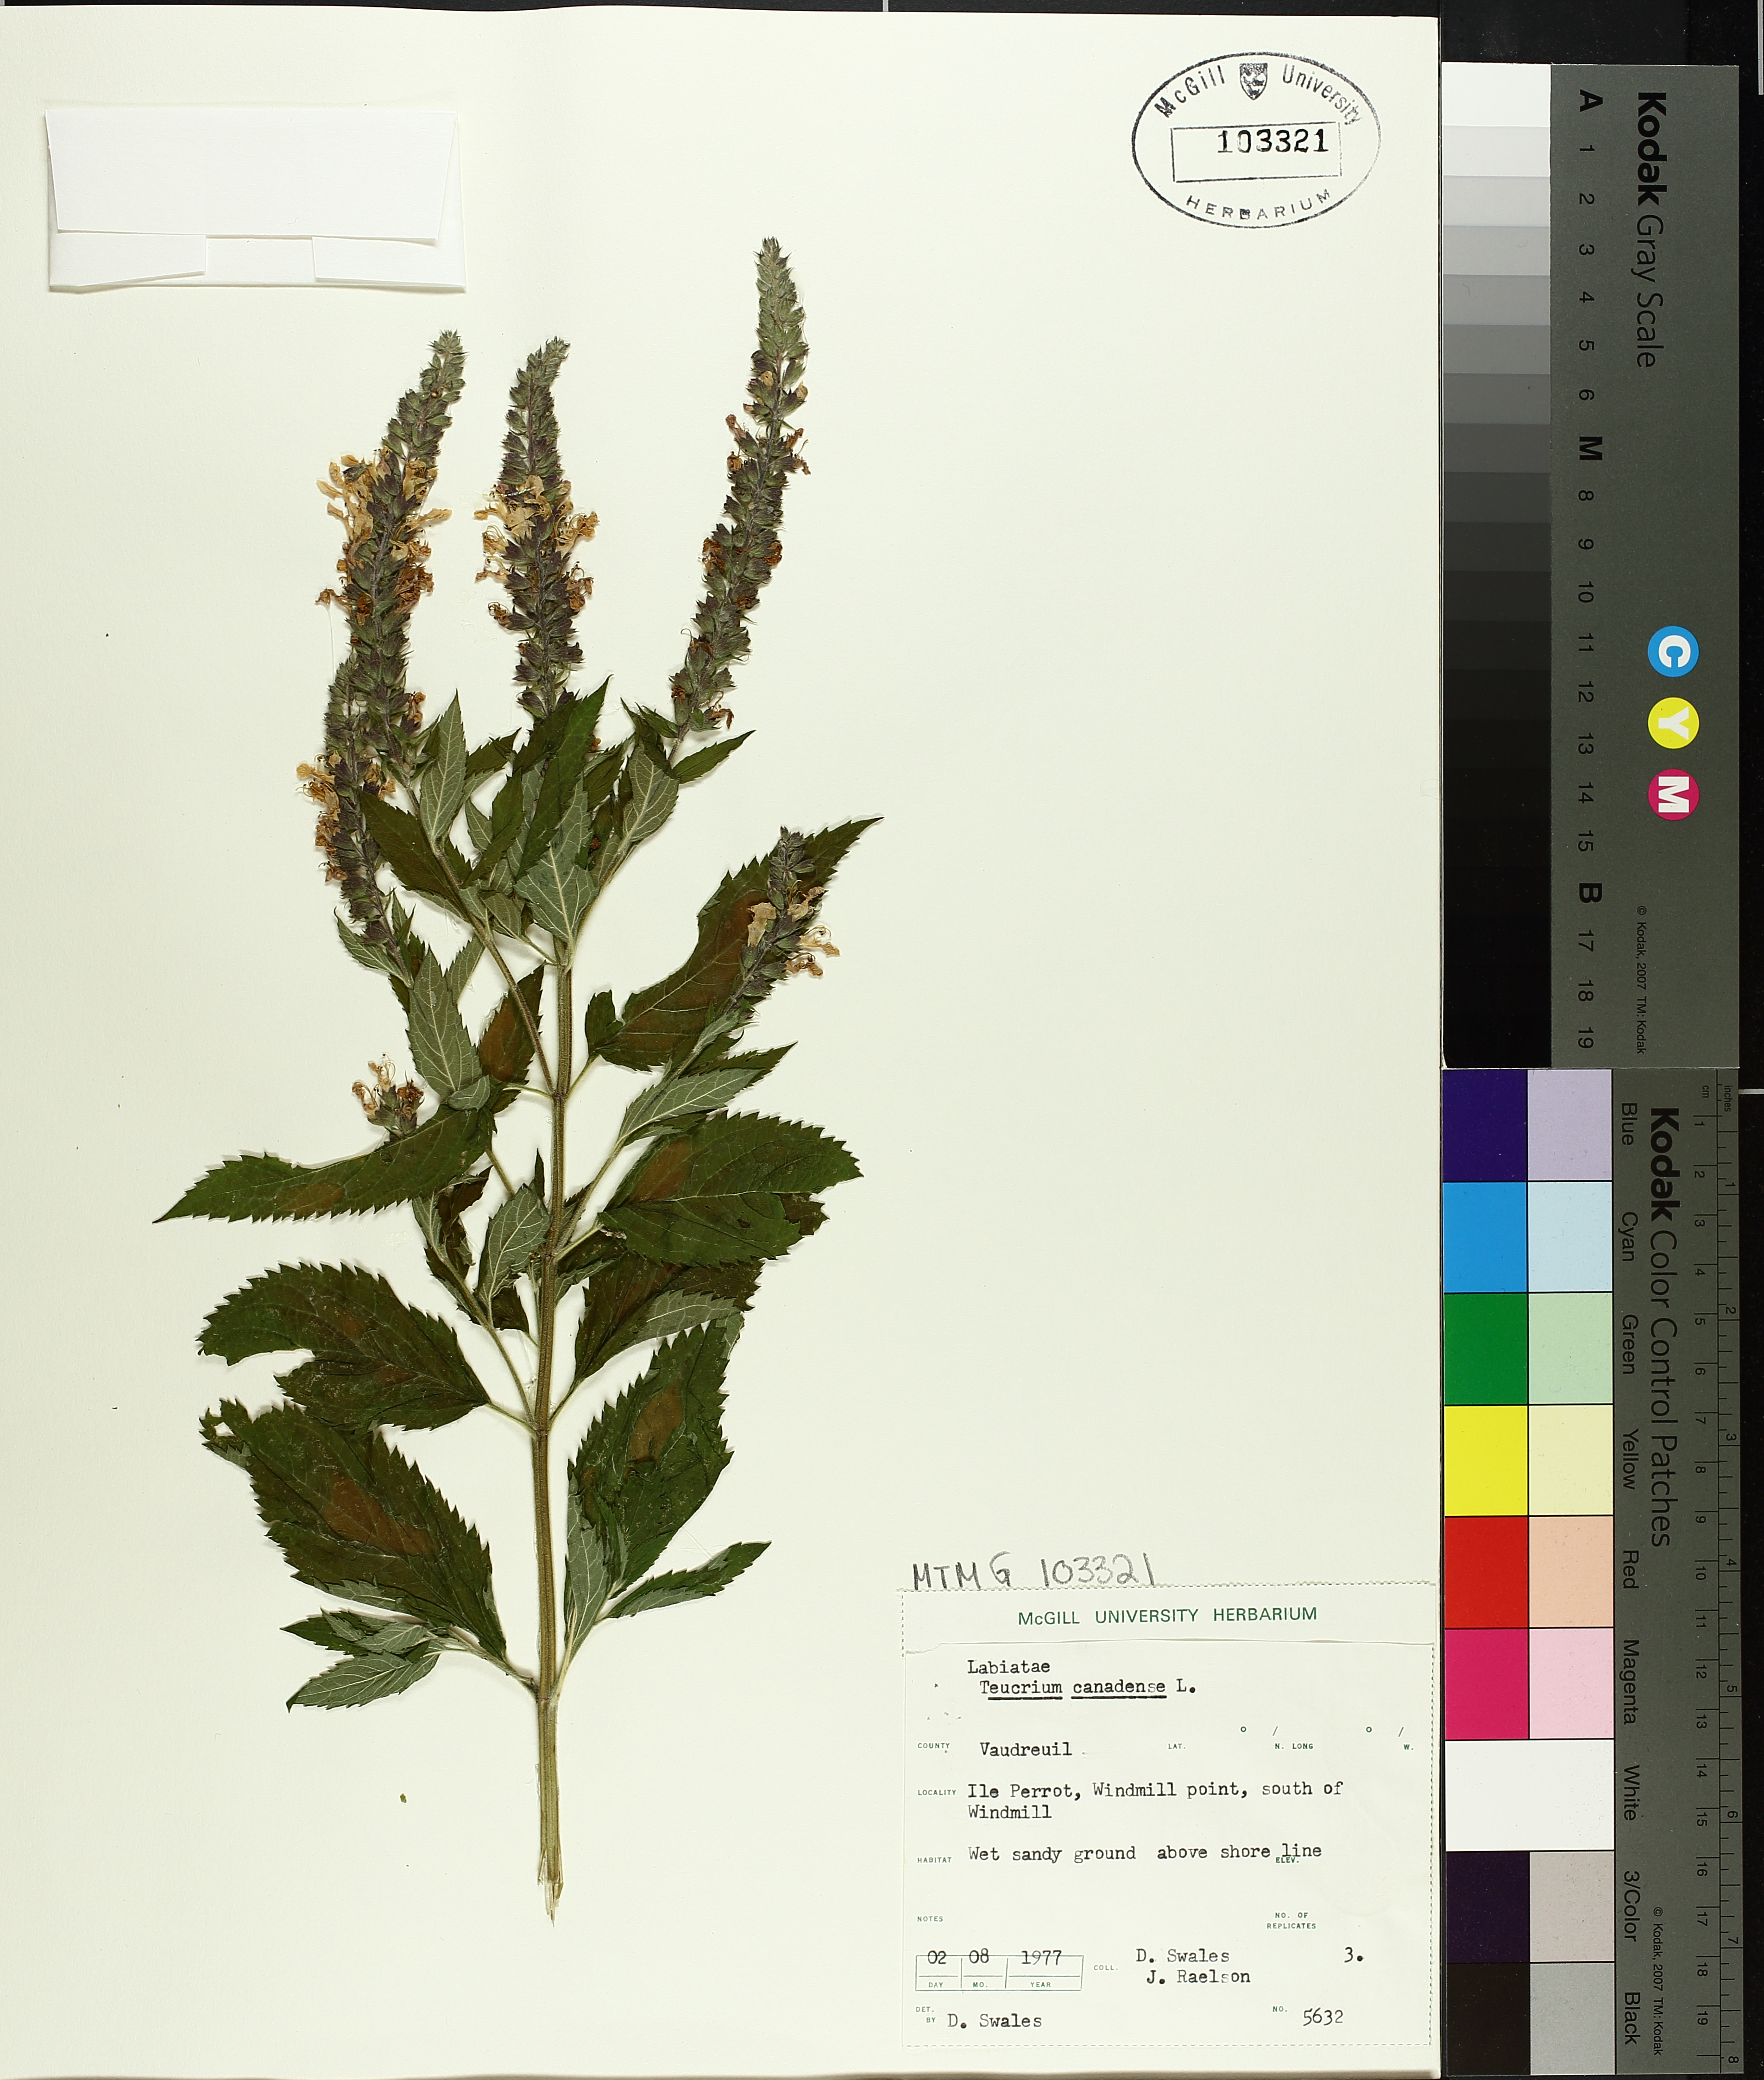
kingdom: Plantae
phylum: Tracheophyta
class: Magnoliopsida
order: Lamiales
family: Lamiaceae
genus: Teucrium
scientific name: Teucrium canadense
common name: American germander
